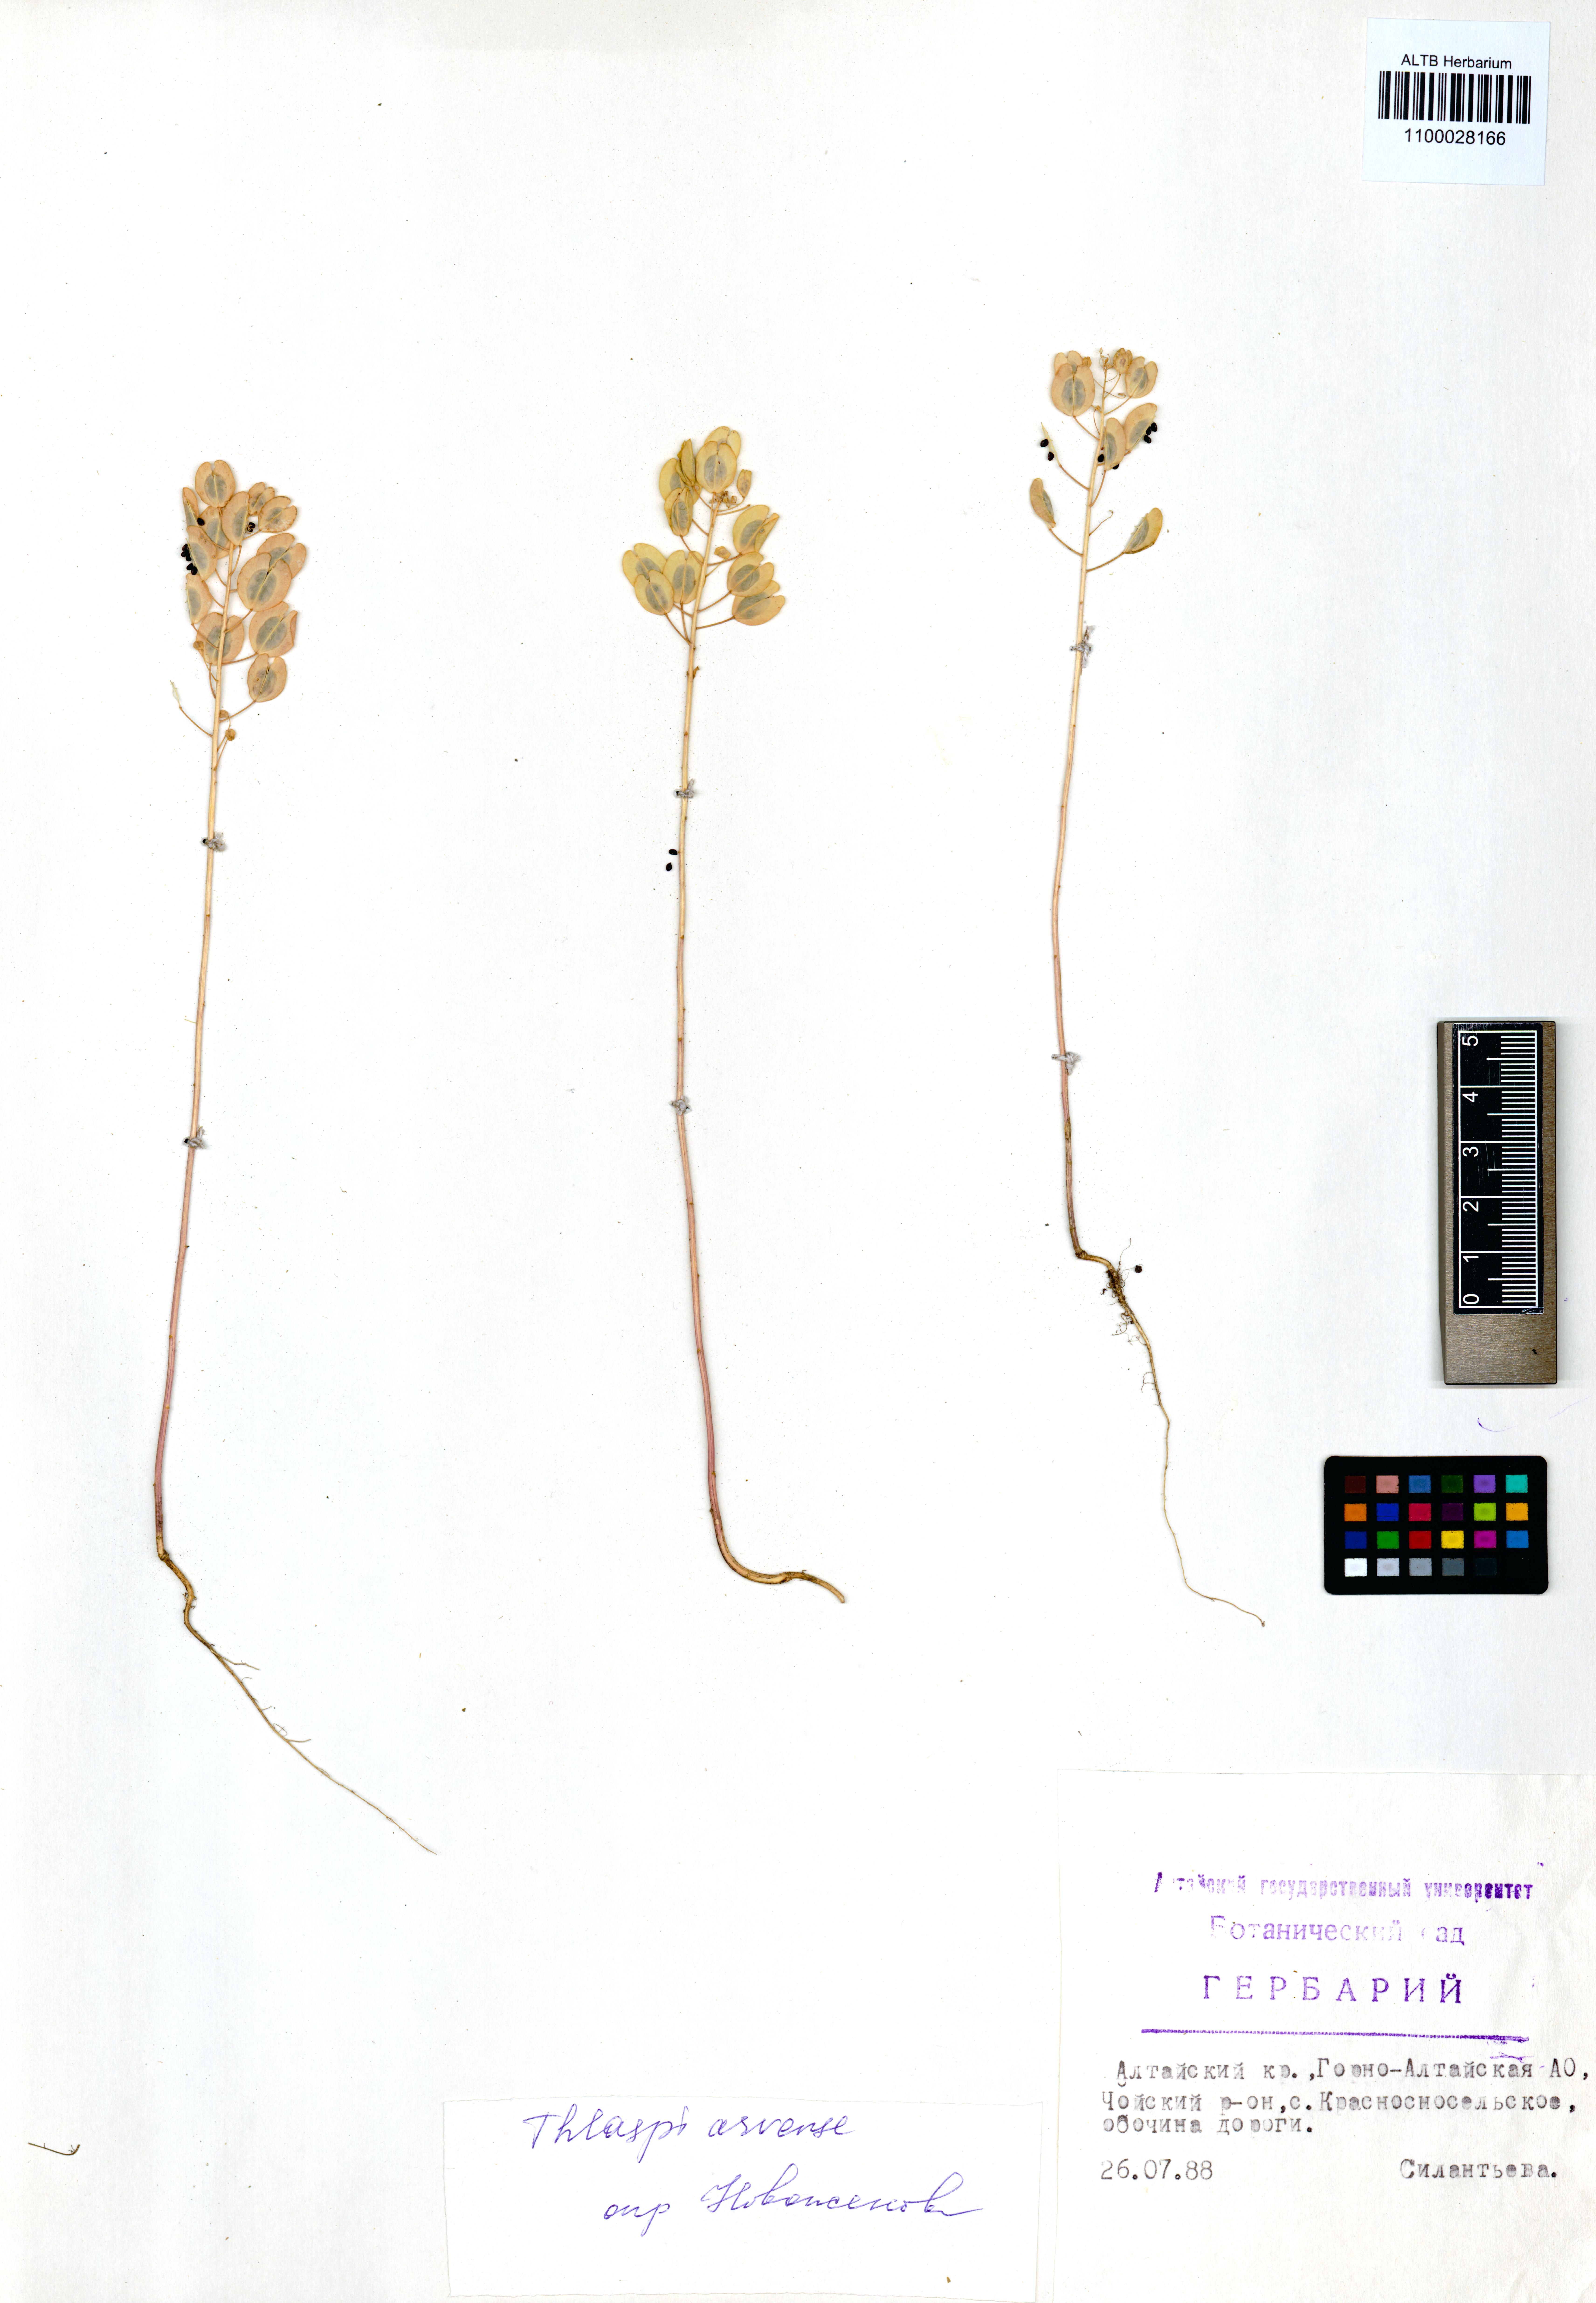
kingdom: Plantae
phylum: Tracheophyta
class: Magnoliopsida
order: Brassicales
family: Brassicaceae
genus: Thlaspi
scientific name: Thlaspi arvense
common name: Field pennycress
